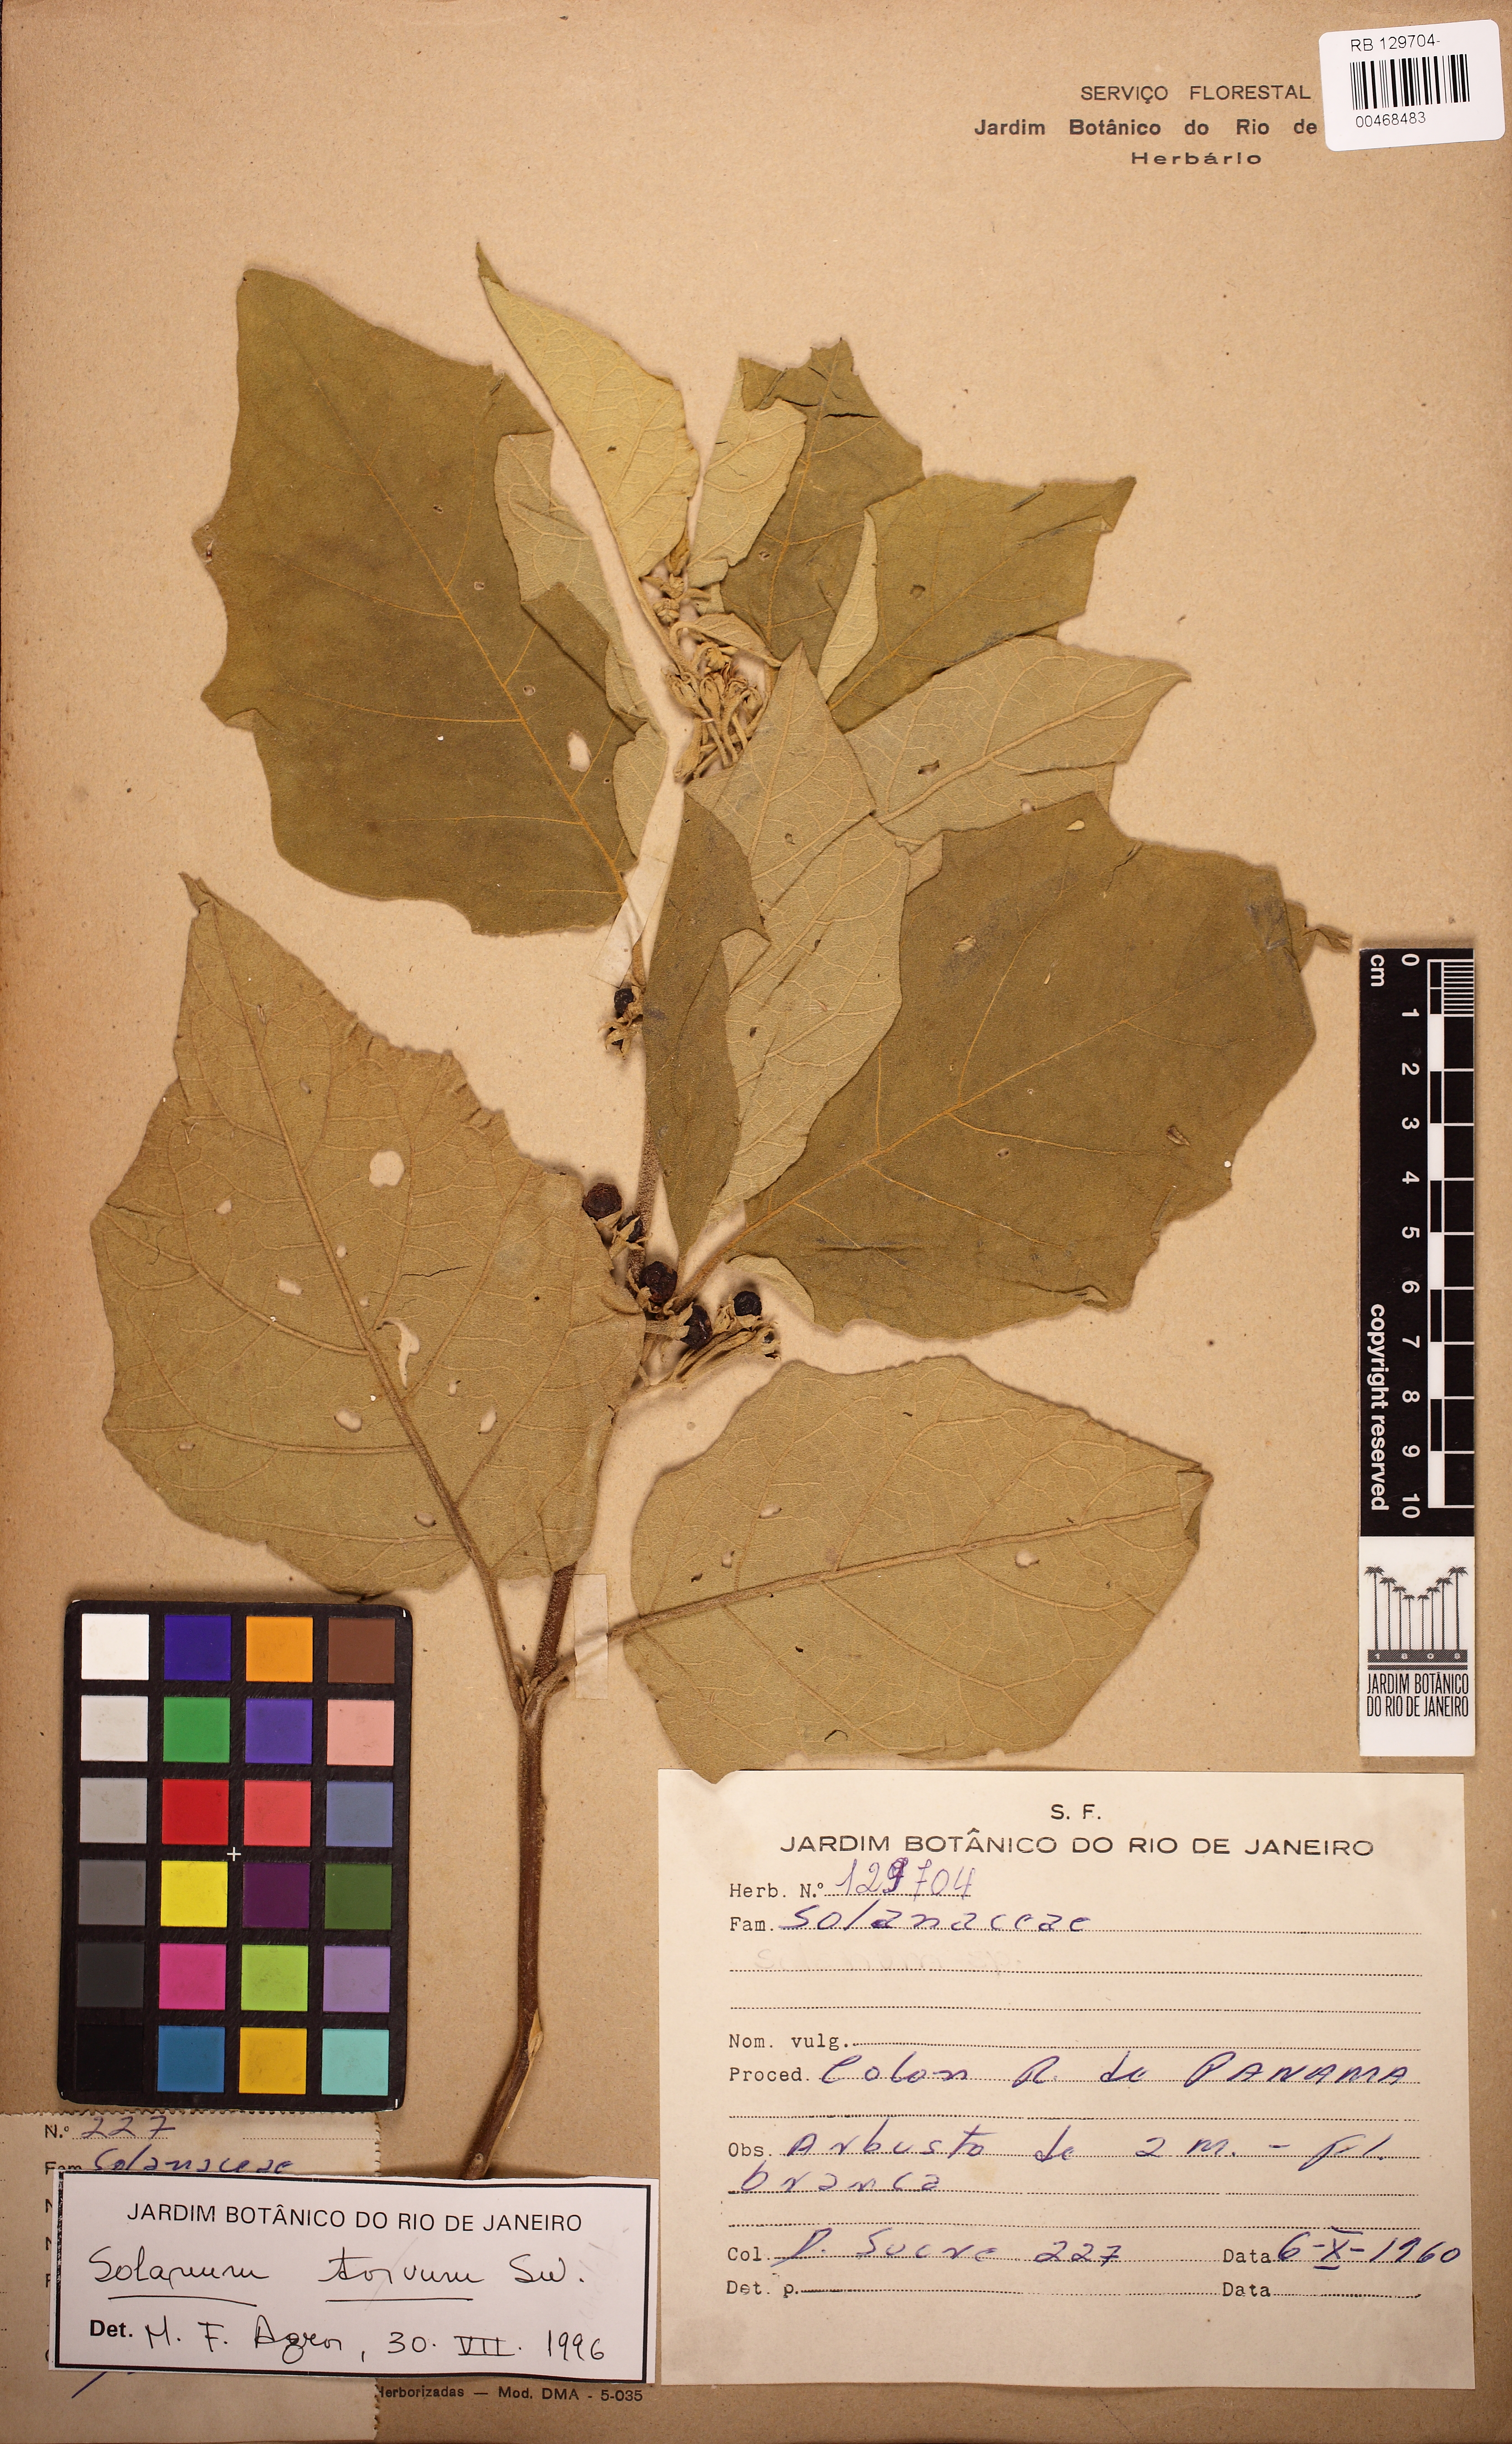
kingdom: Plantae
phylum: Tracheophyta
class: Magnoliopsida
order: Solanales
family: Solanaceae
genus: Solanum
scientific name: Solanum torvum
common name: Turkey berry
